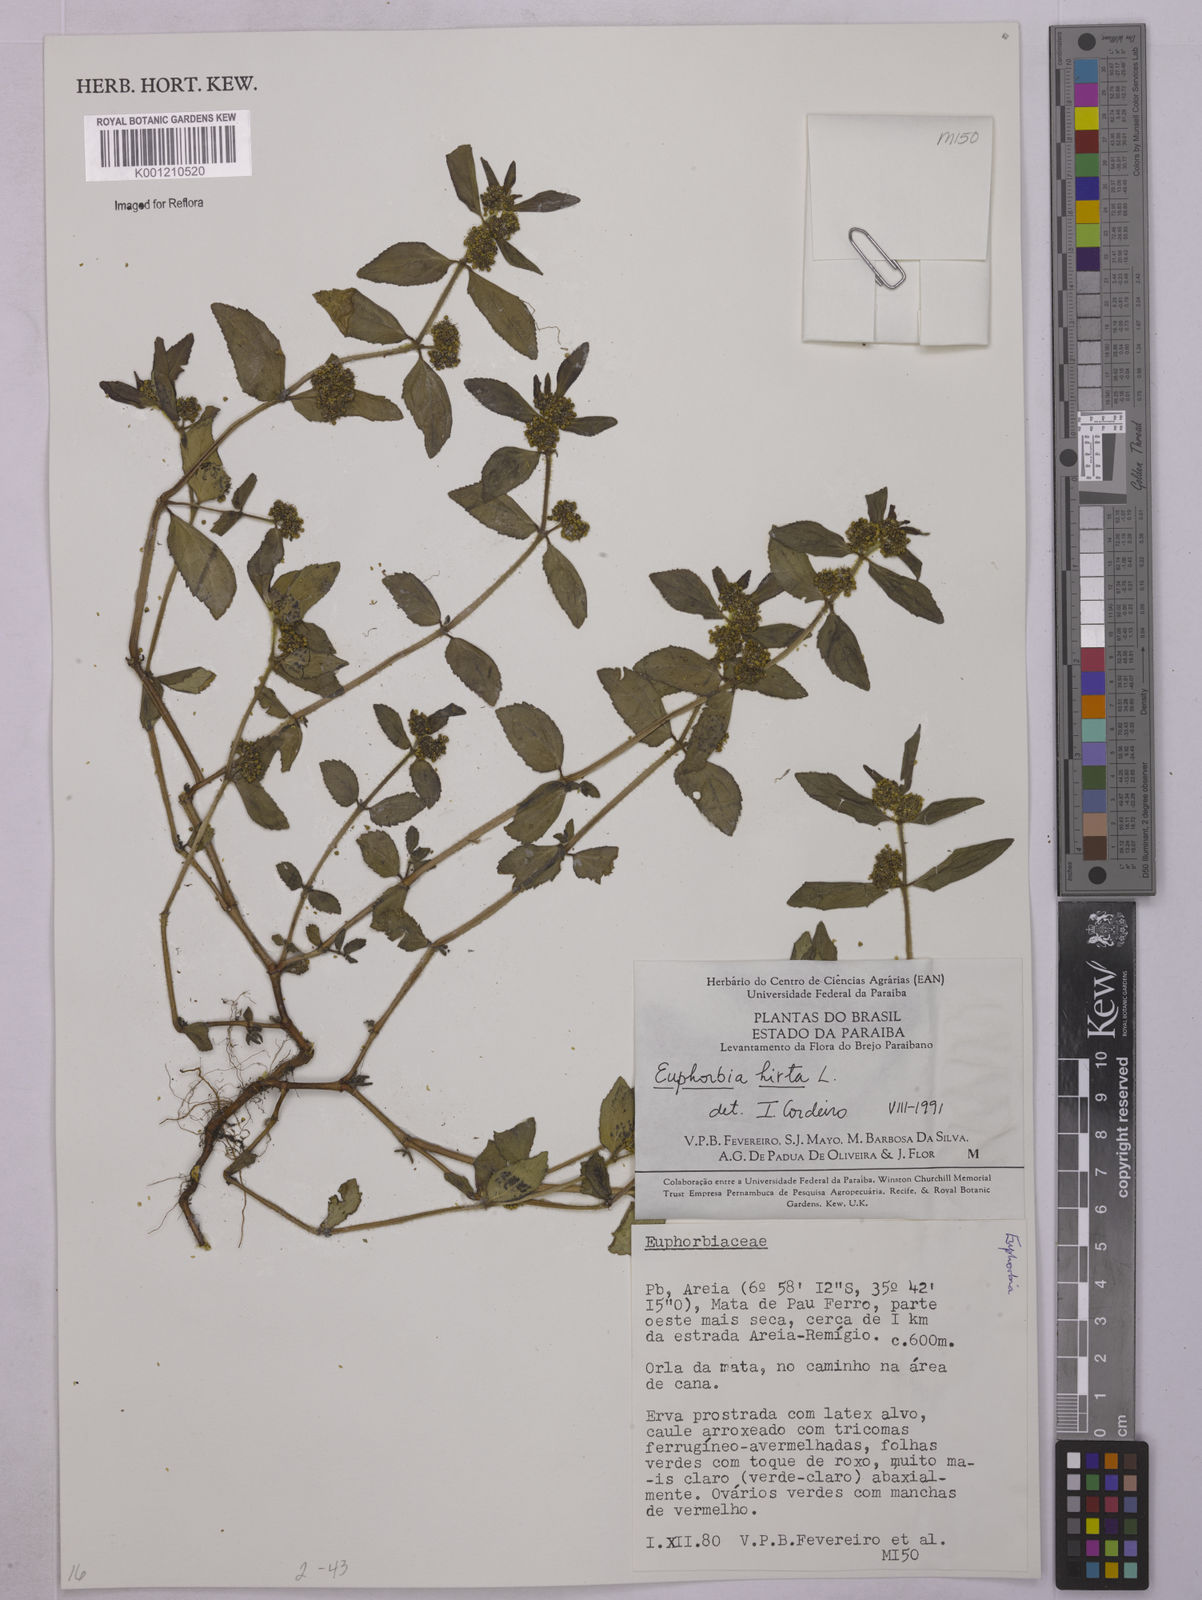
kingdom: Plantae
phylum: Tracheophyta
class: Magnoliopsida
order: Malpighiales
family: Euphorbiaceae
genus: Euphorbia
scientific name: Euphorbia hirta
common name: Pillpod sandmat
